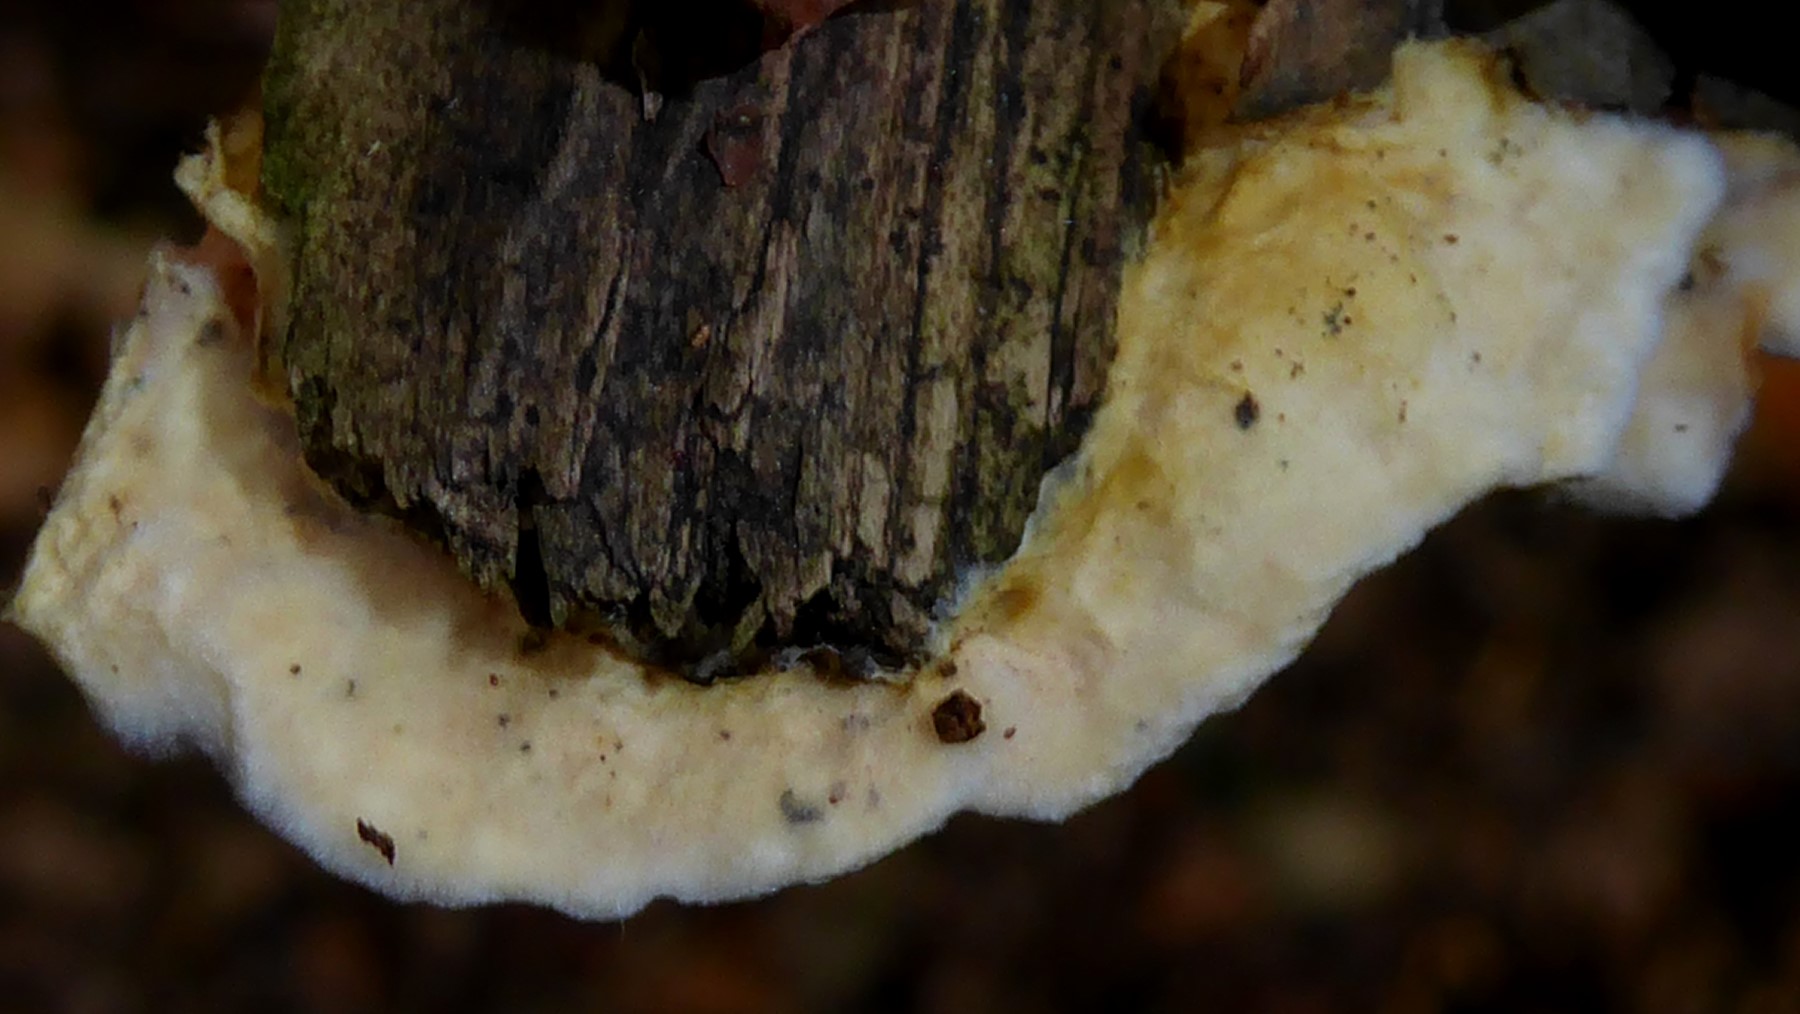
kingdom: Fungi
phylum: Basidiomycota
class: Agaricomycetes
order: Boletales
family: Hygrophoropsidaceae
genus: Leucogyrophana
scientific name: Leucogyrophana
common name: hussvamp
